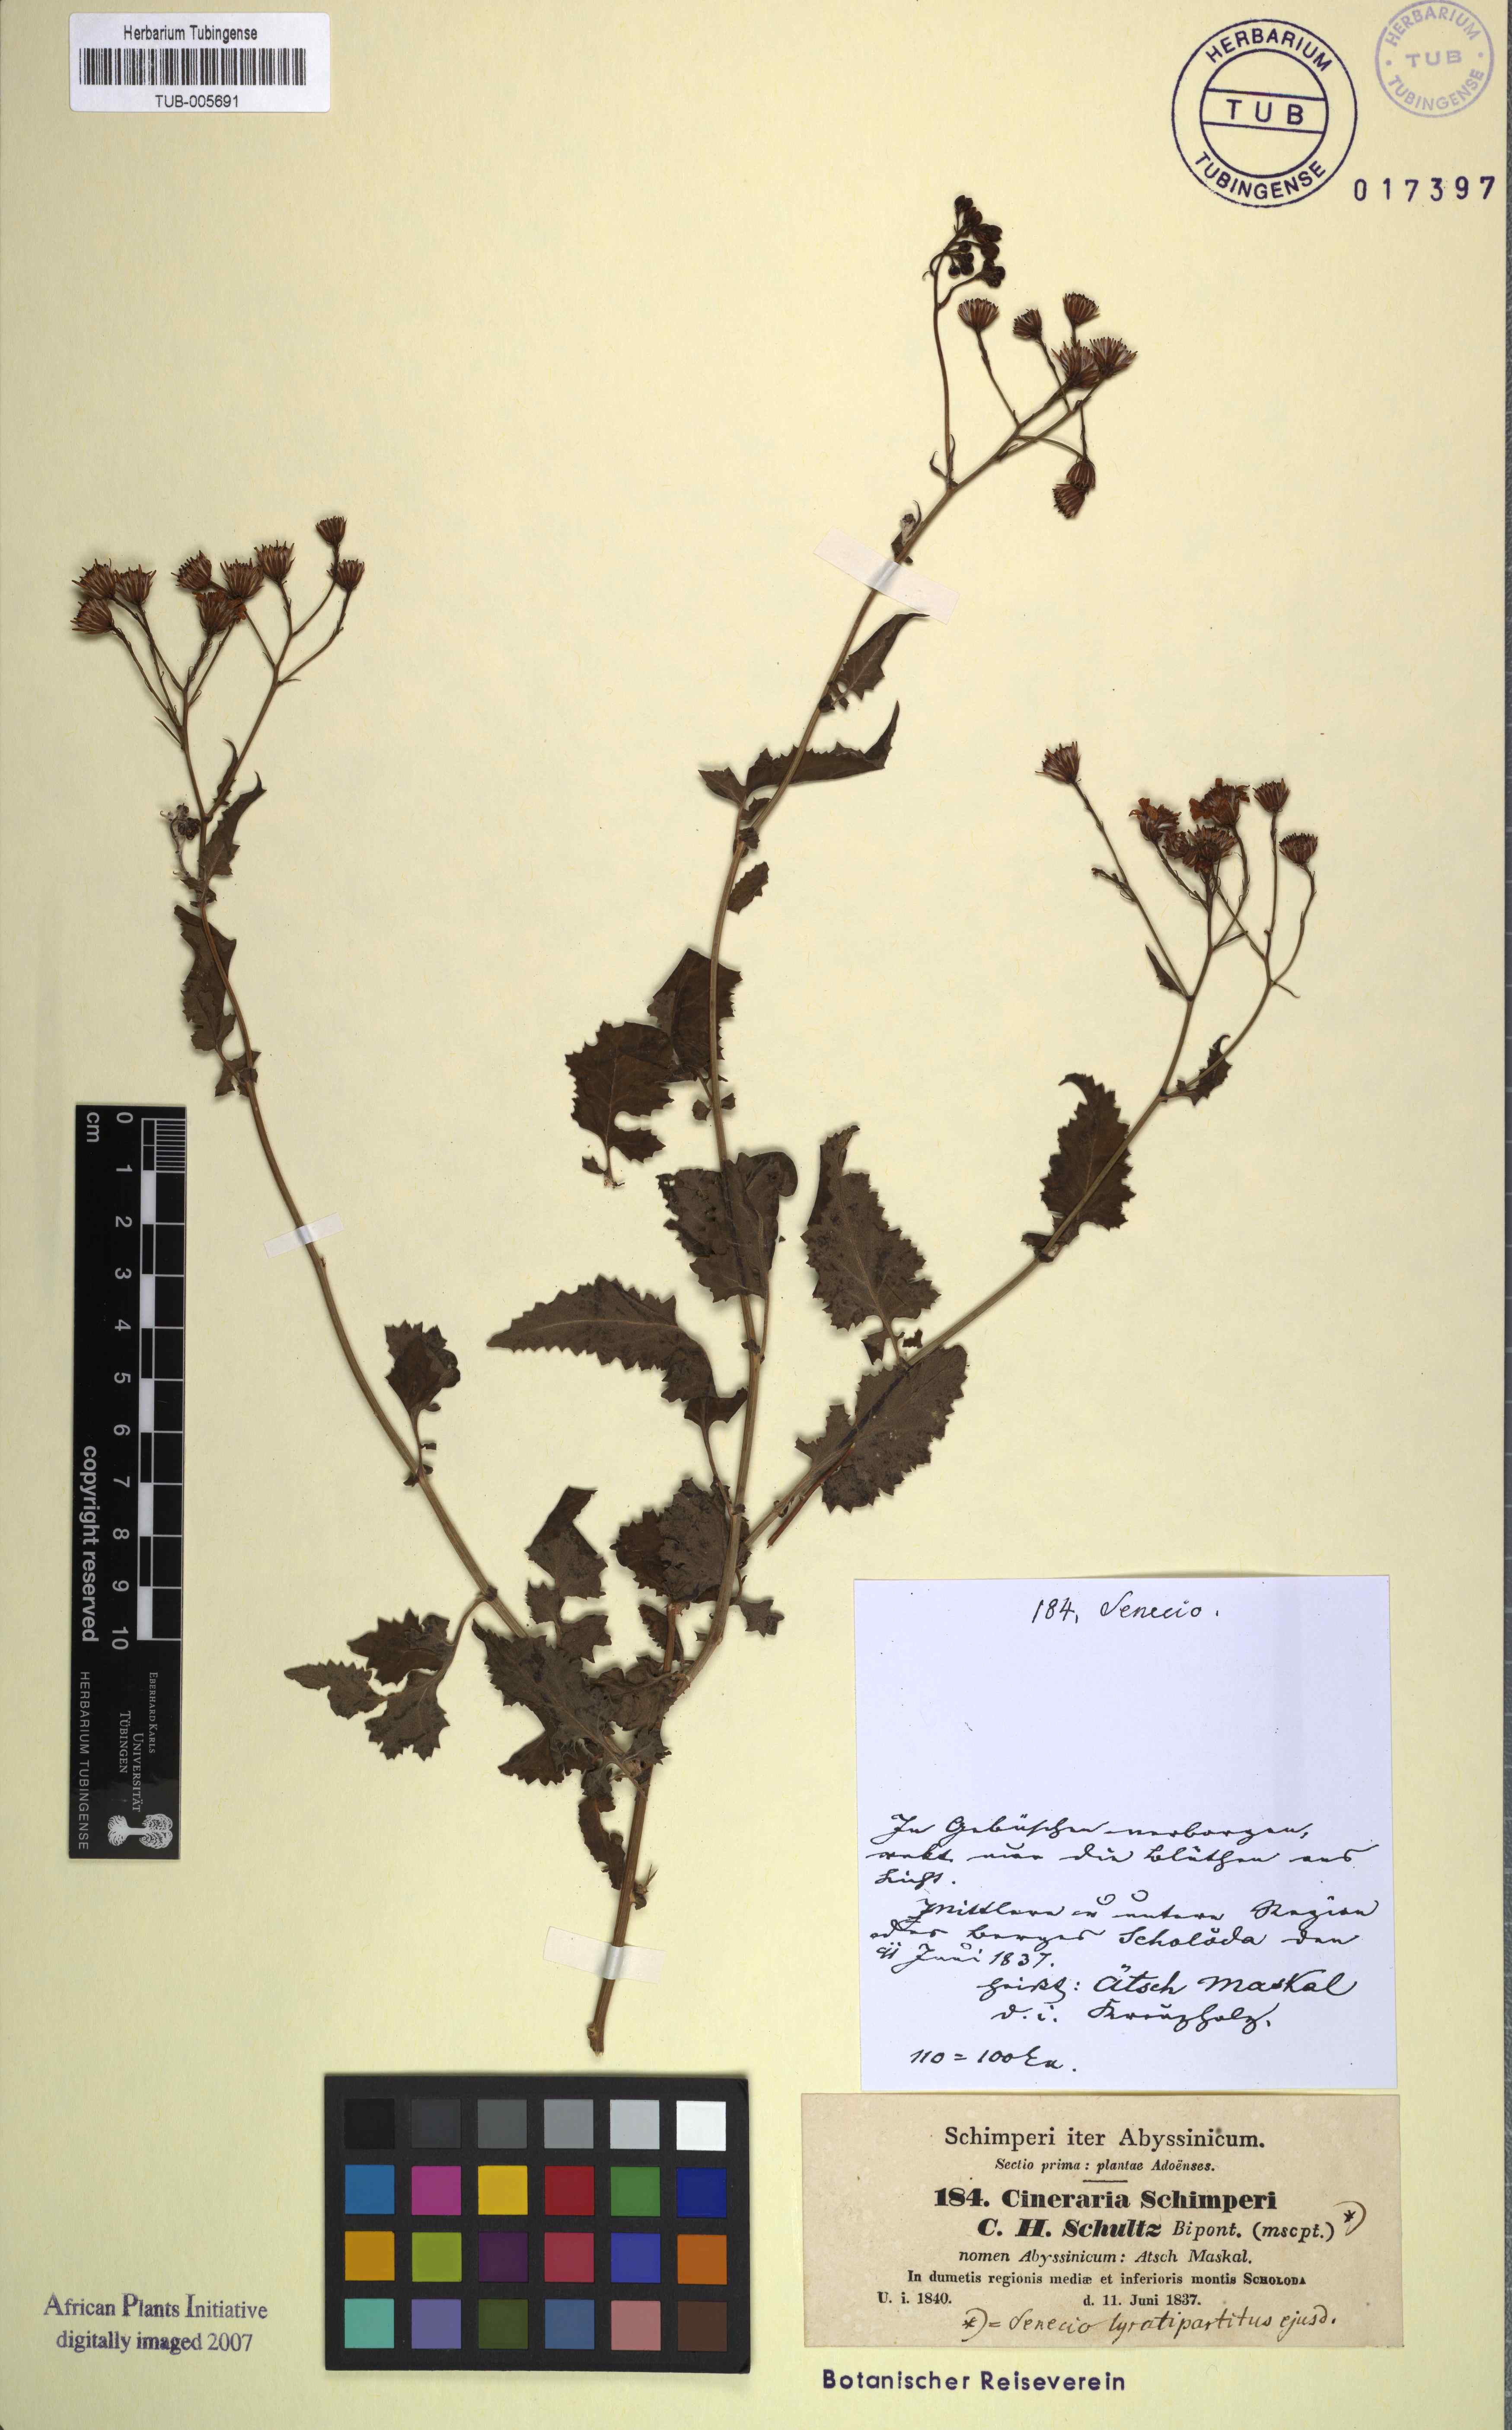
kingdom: Plantae
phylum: Tracheophyta
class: Magnoliopsida
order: Asterales
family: Asteraceae
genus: Senecio
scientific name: Senecio lyratus
